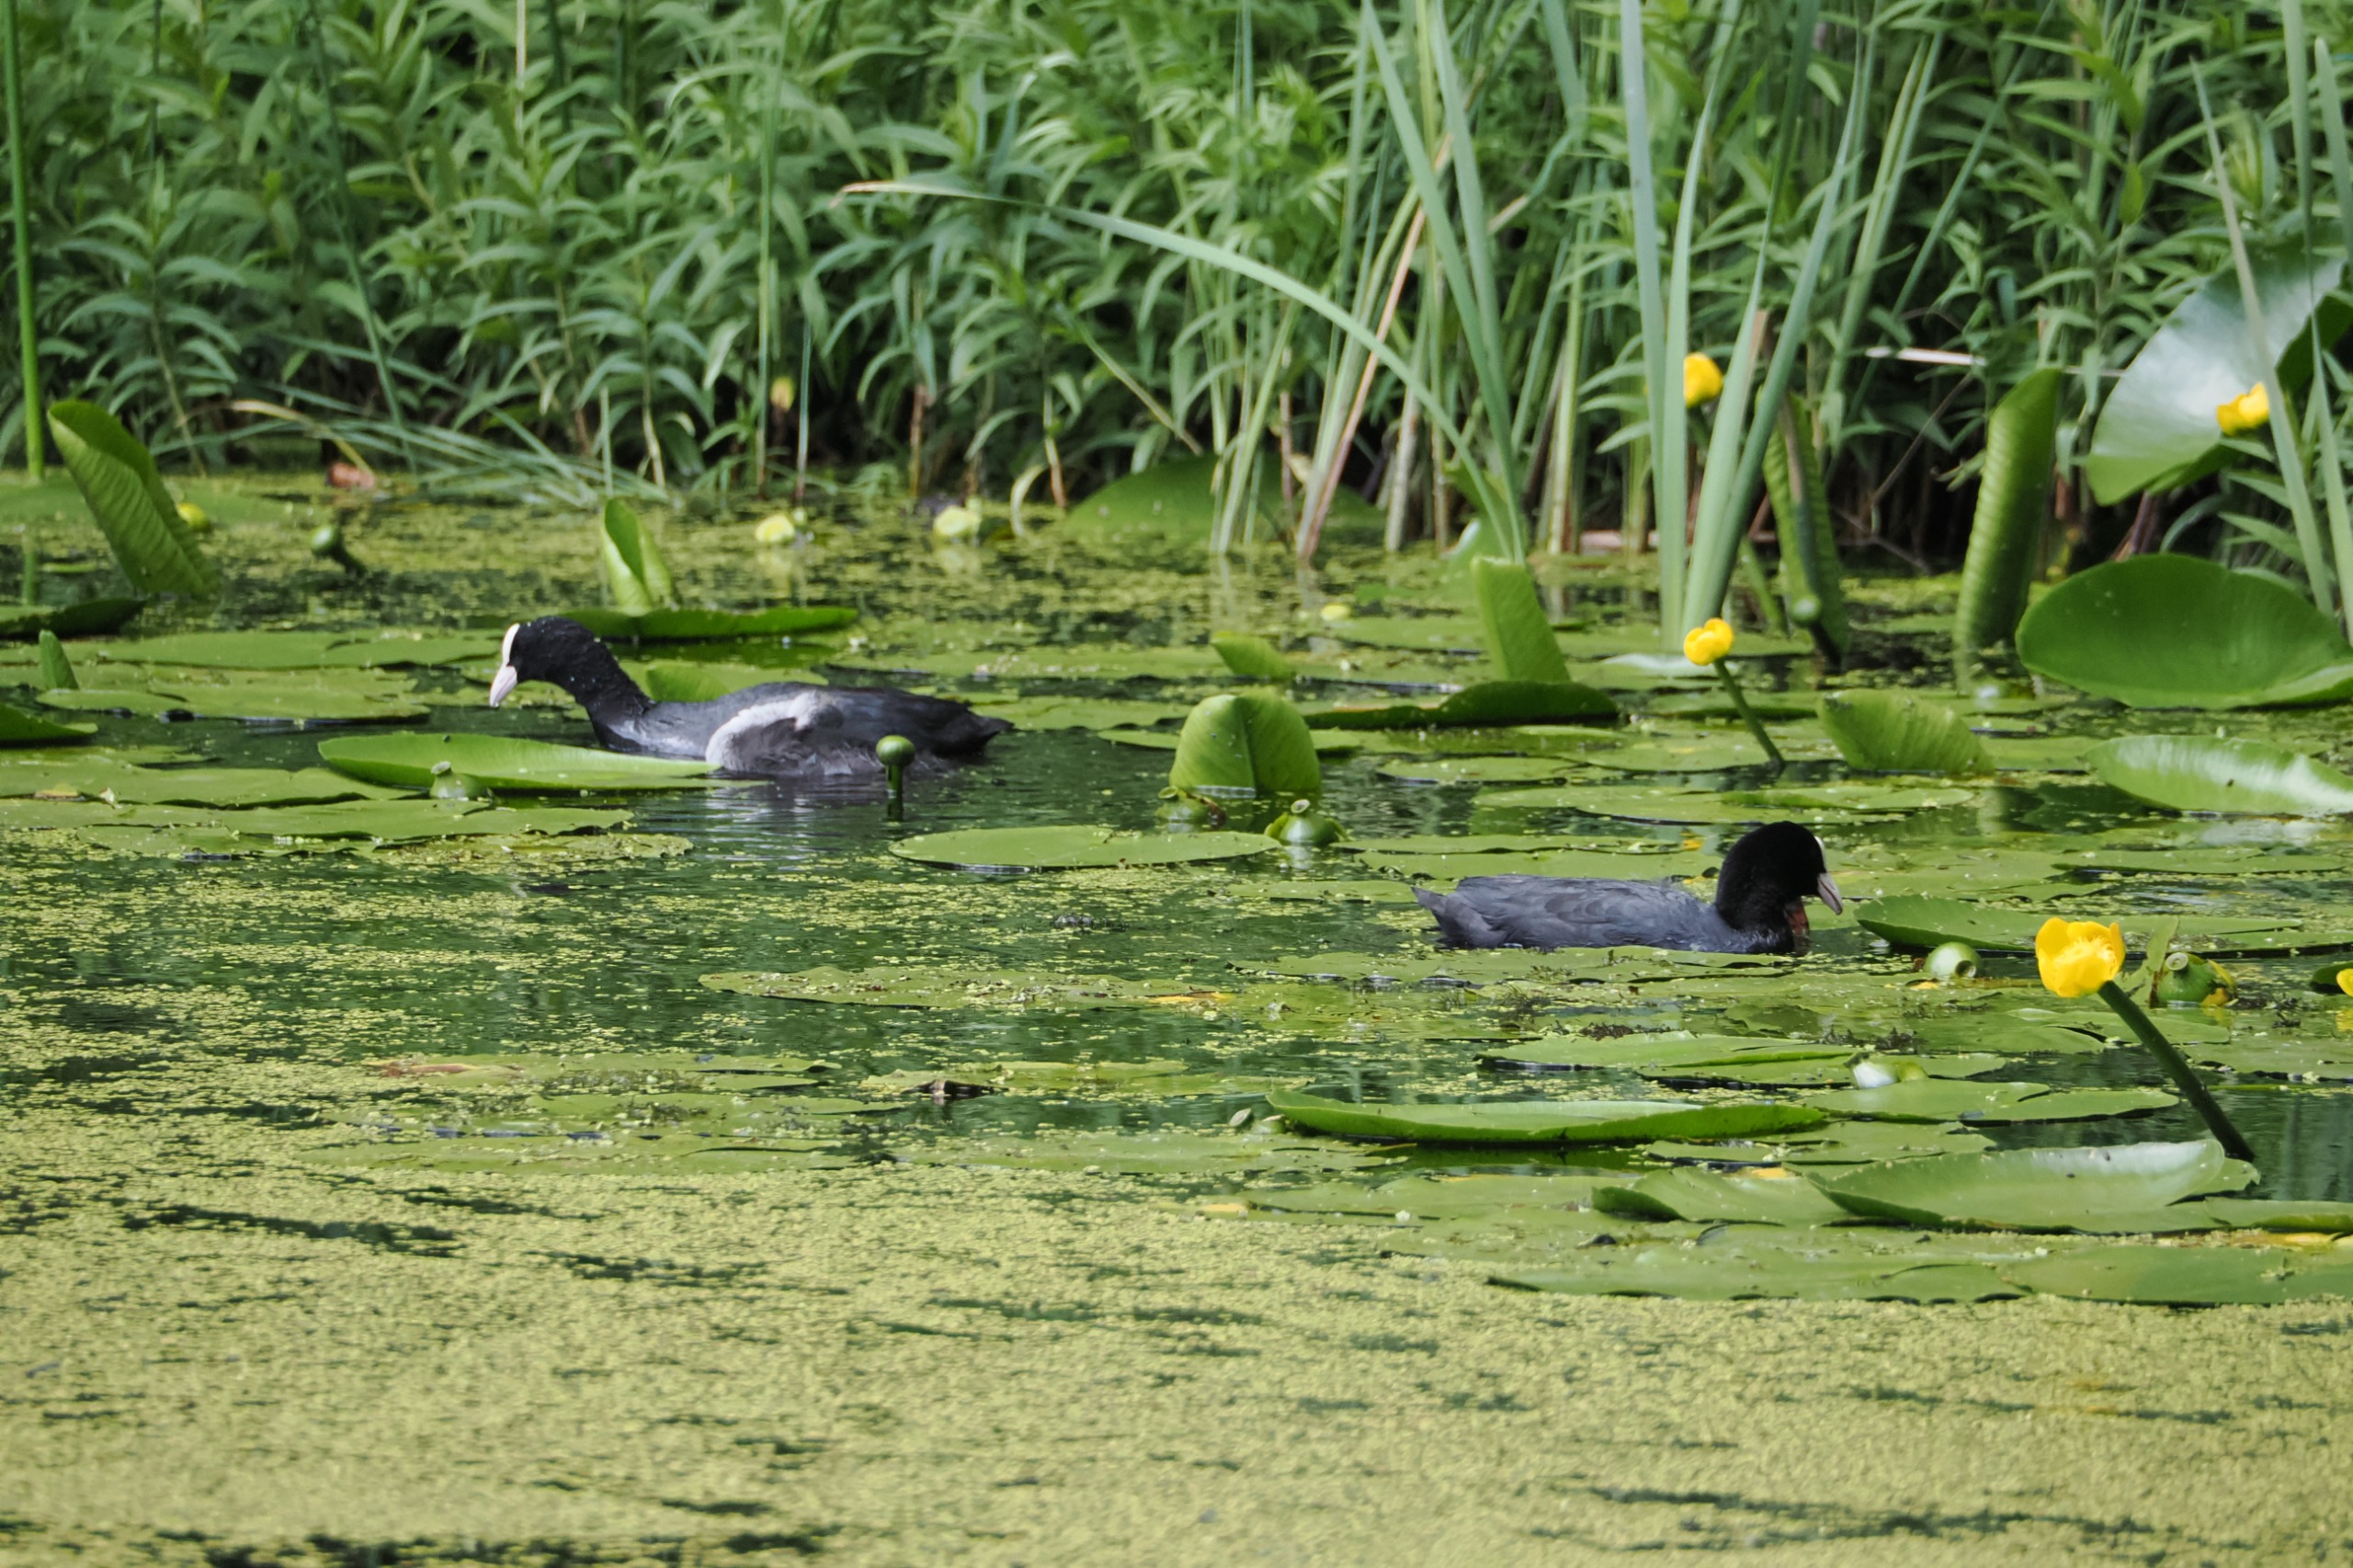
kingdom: Animalia
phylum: Chordata
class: Aves
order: Gruiformes
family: Rallidae
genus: Fulica
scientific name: Fulica atra
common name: Blishøne
